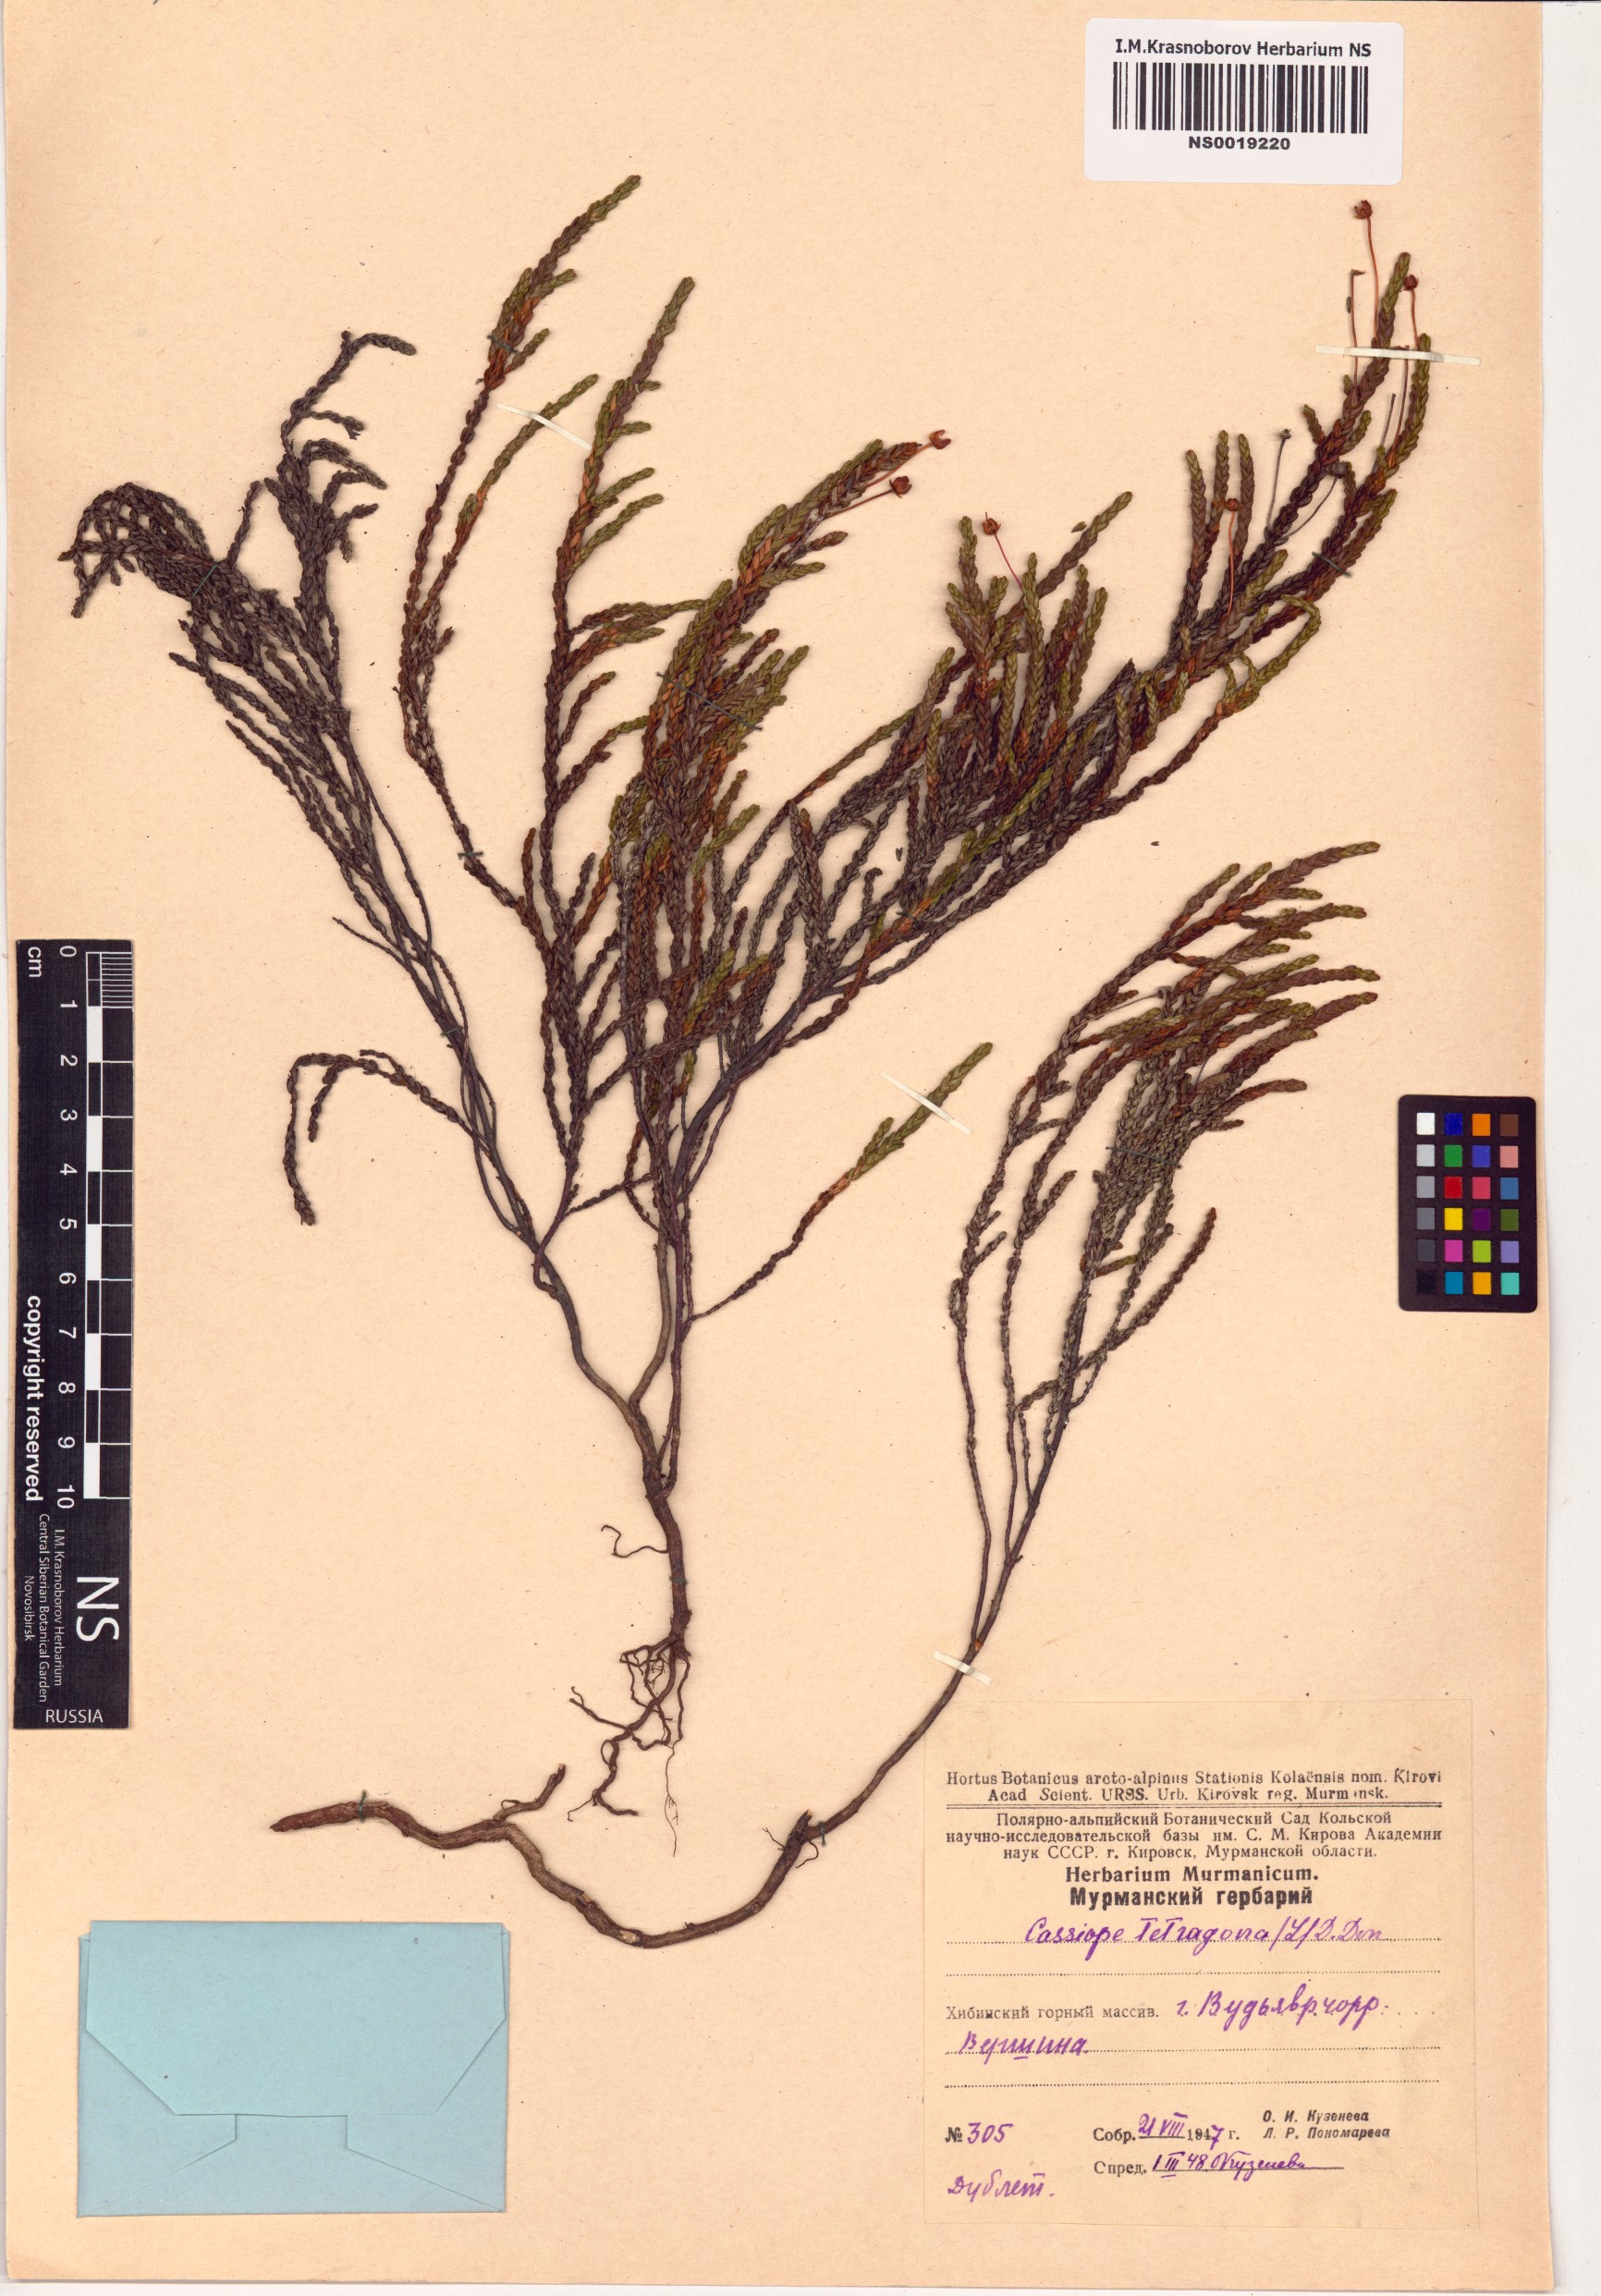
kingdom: Plantae
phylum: Tracheophyta
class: Magnoliopsida
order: Ericales
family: Ericaceae
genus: Cassiope
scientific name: Cassiope tetragona
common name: Arctic bell heather
